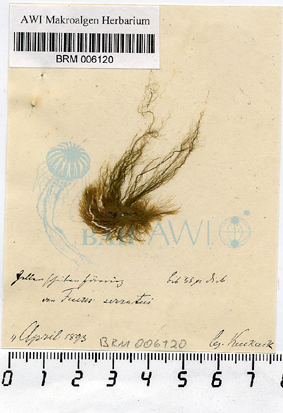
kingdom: Plantae
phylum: Chlorophyta
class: Ulvophyceae
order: Ulotrichales
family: Ulotrichaceae
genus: Ulothrix
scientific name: Ulothrix flacca
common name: Woolly hair
